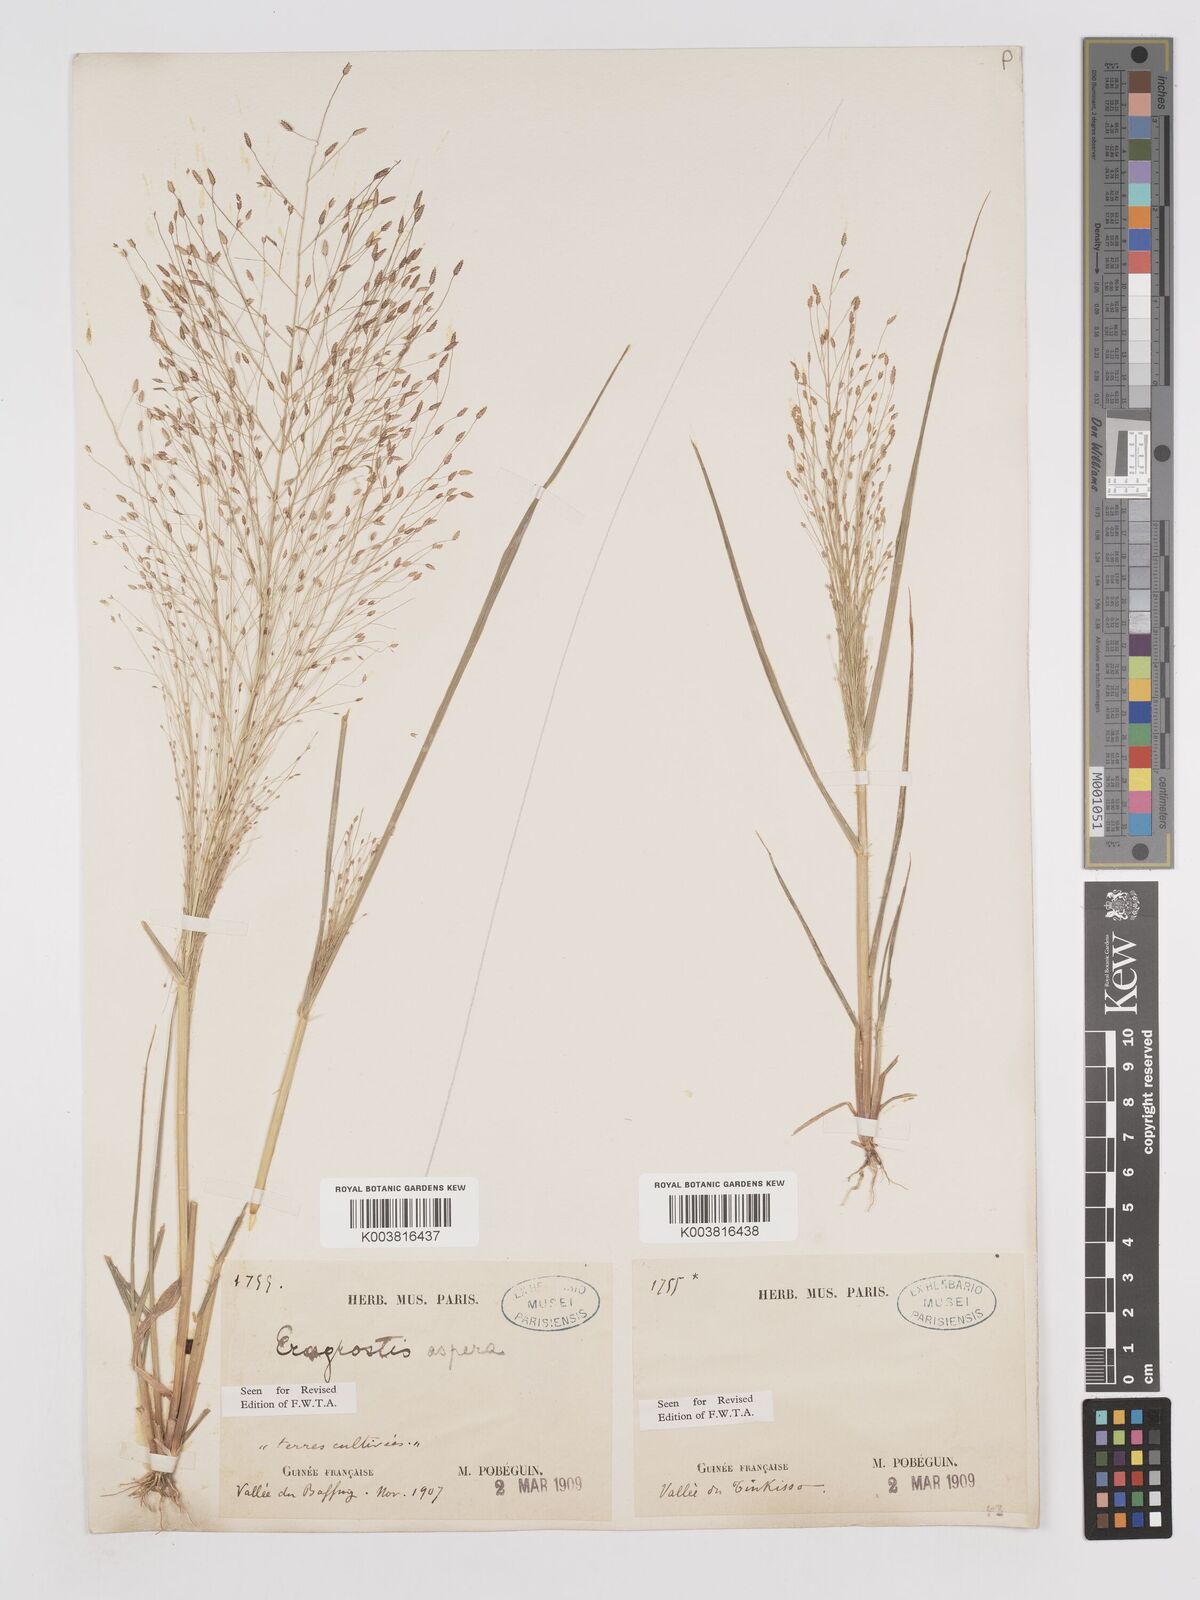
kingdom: Plantae
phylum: Tracheophyta
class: Liliopsida
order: Poales
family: Poaceae
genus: Eragrostis
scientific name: Eragrostis aspera
